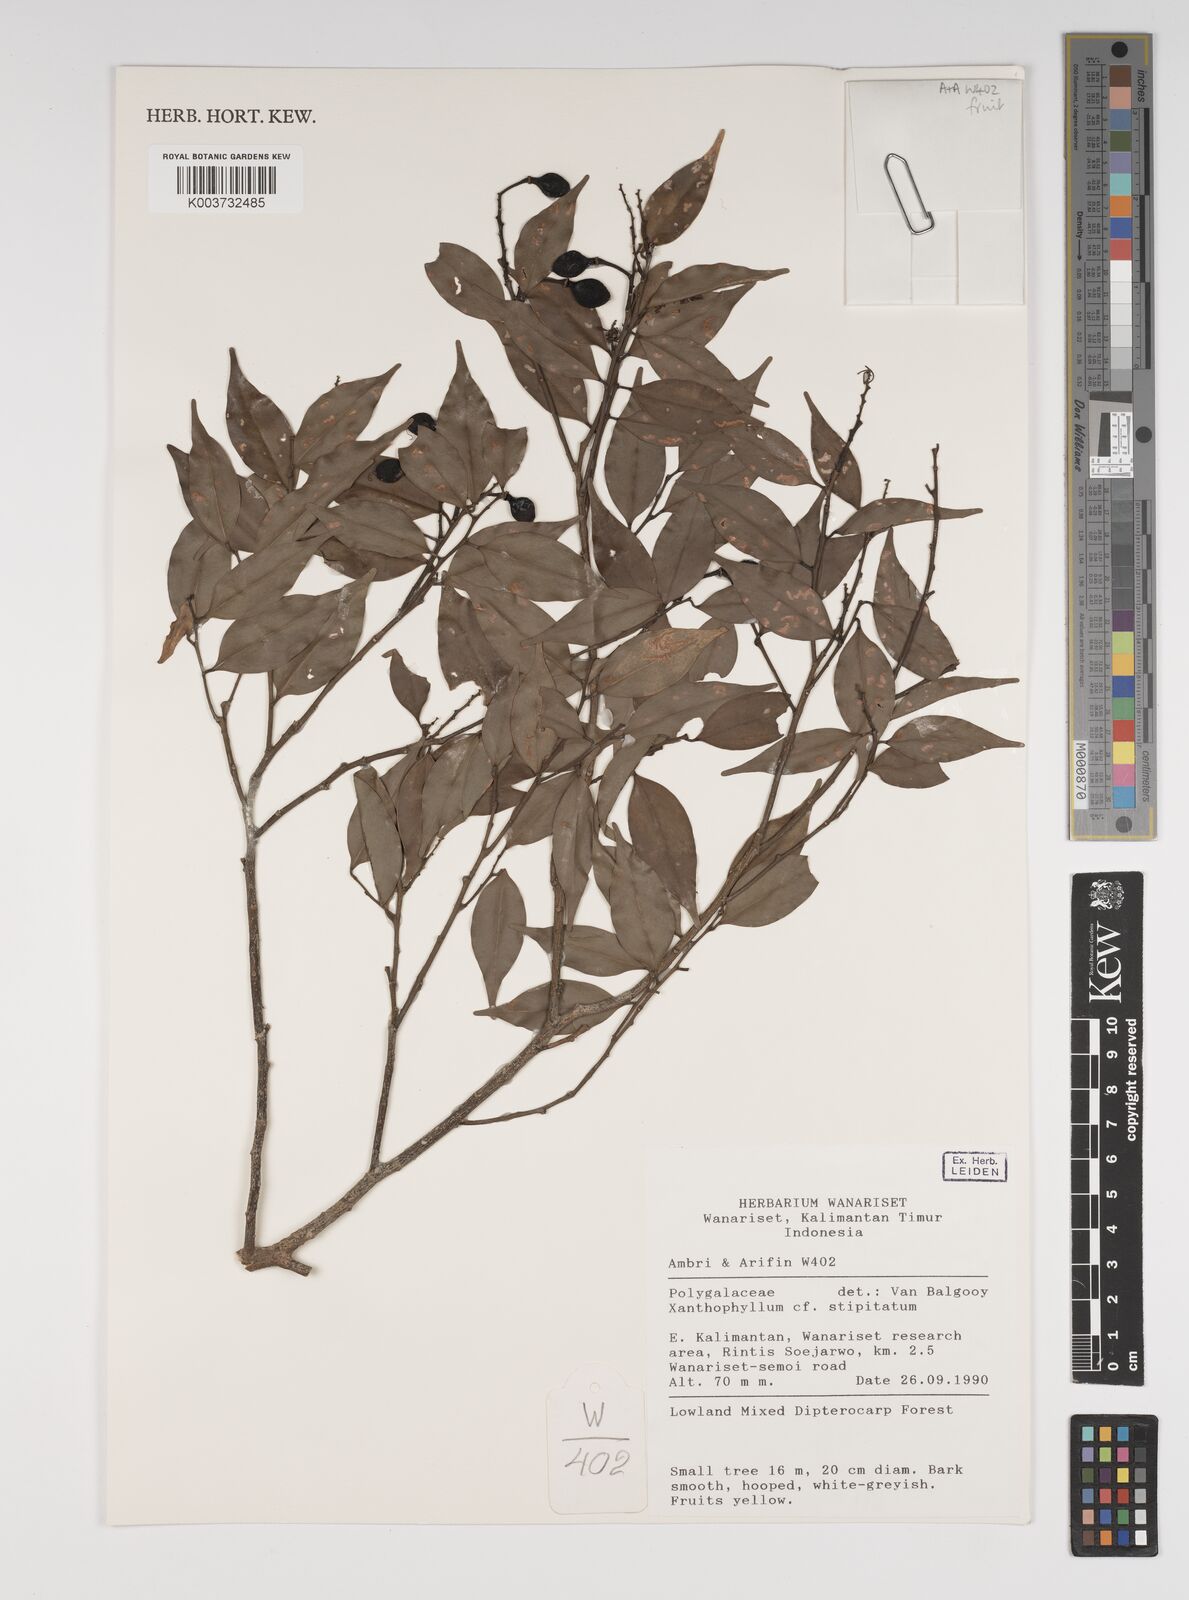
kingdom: Plantae
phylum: Tracheophyta
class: Magnoliopsida
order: Fabales
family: Polygalaceae
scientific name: Polygalaceae
